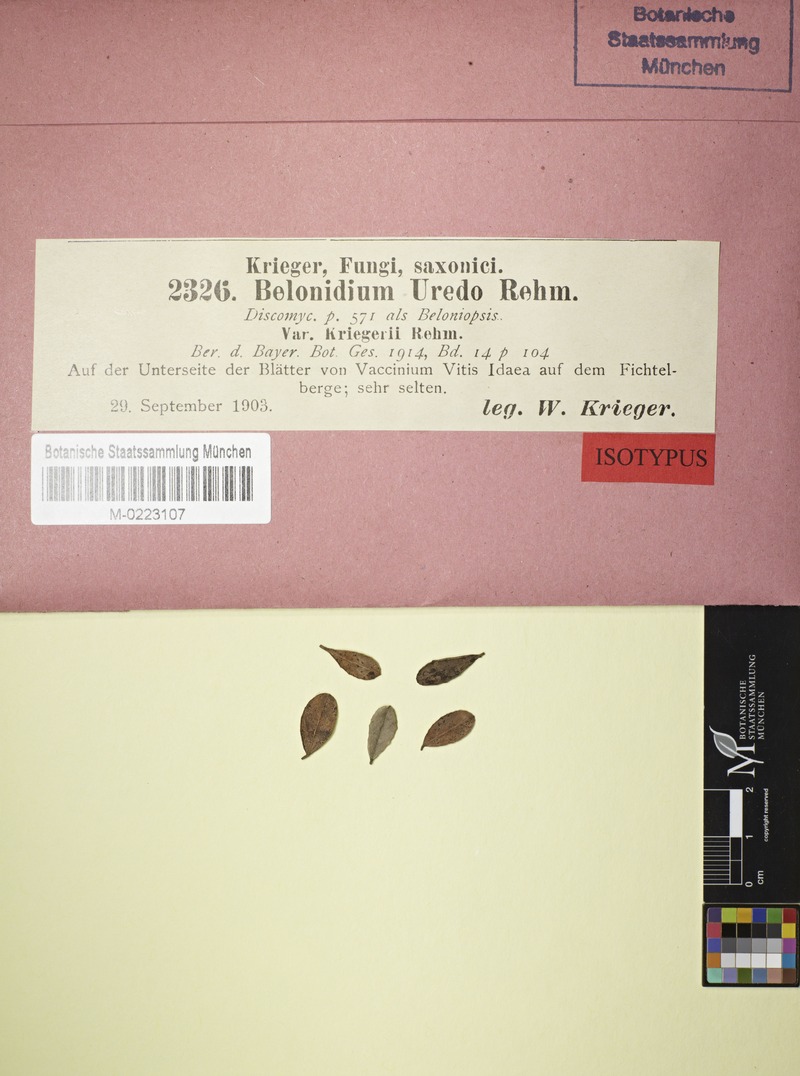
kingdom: Fungi
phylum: Ascomycota
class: Leotiomycetes
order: Helotiales
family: Lachnaceae
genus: Belonidium
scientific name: Belonidium uredo
